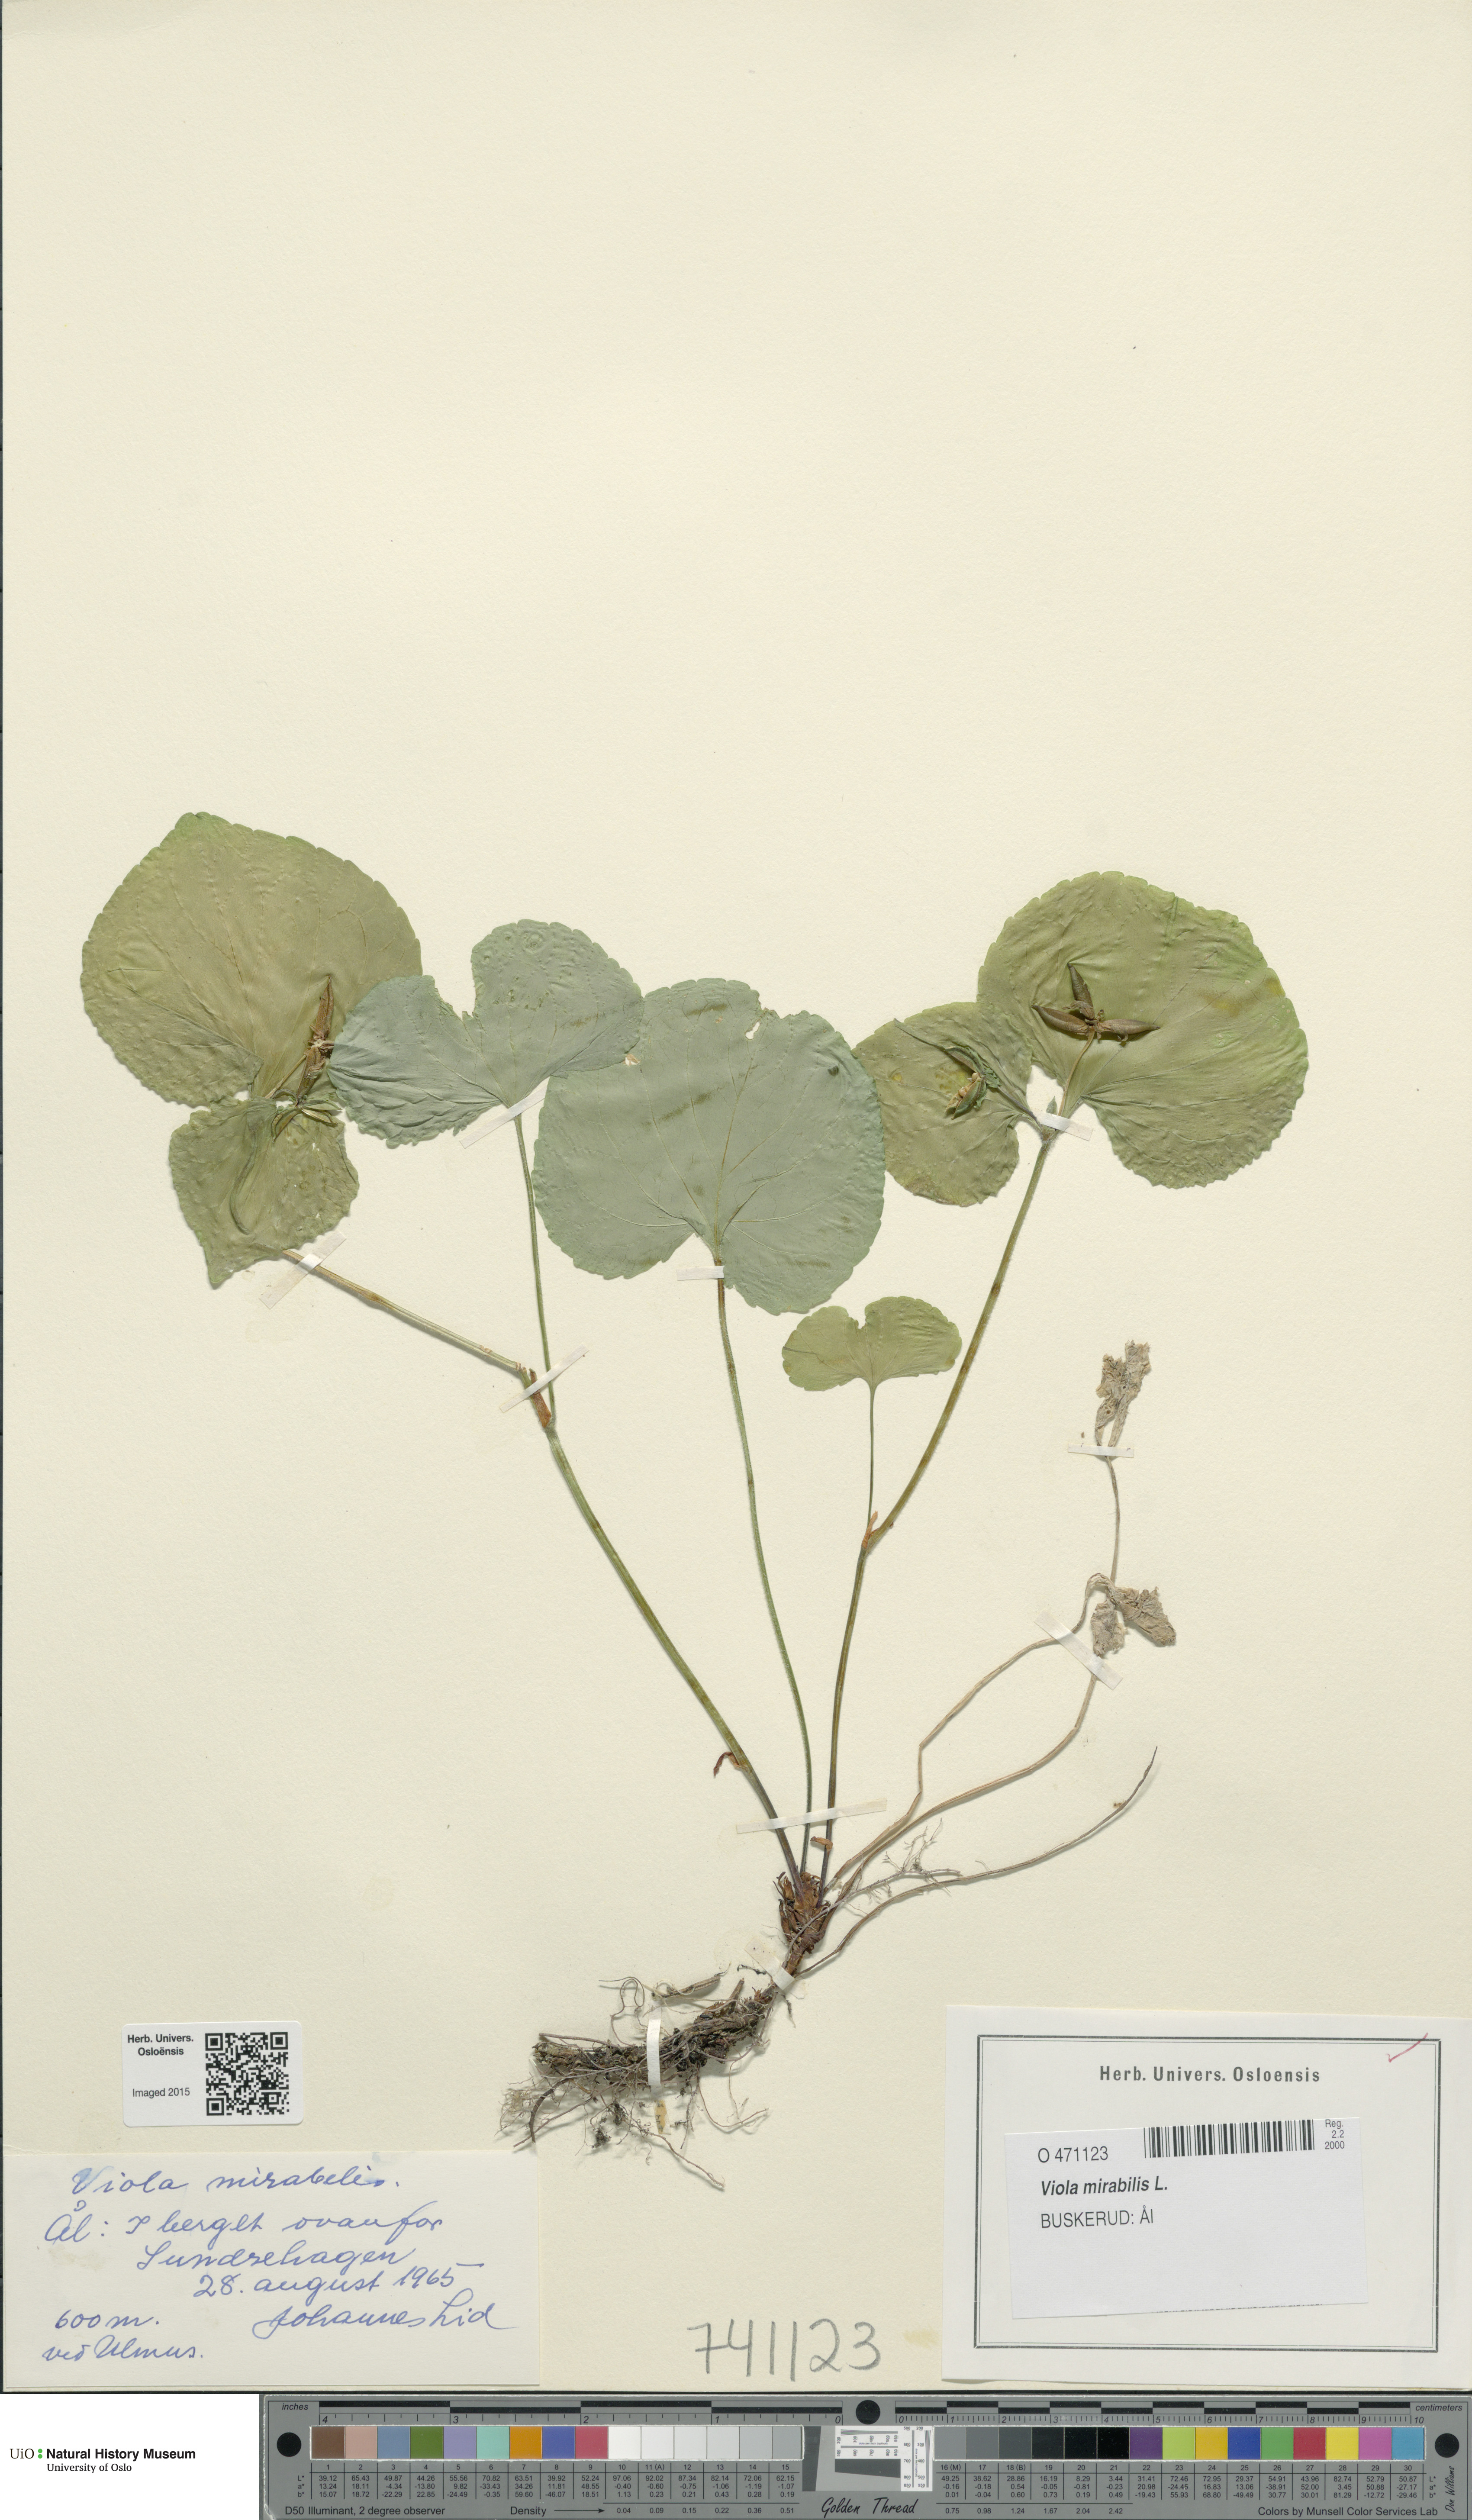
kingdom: Plantae
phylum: Tracheophyta
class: Magnoliopsida
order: Malpighiales
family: Violaceae
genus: Viola
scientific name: Viola mirabilis
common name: Wonder violet
